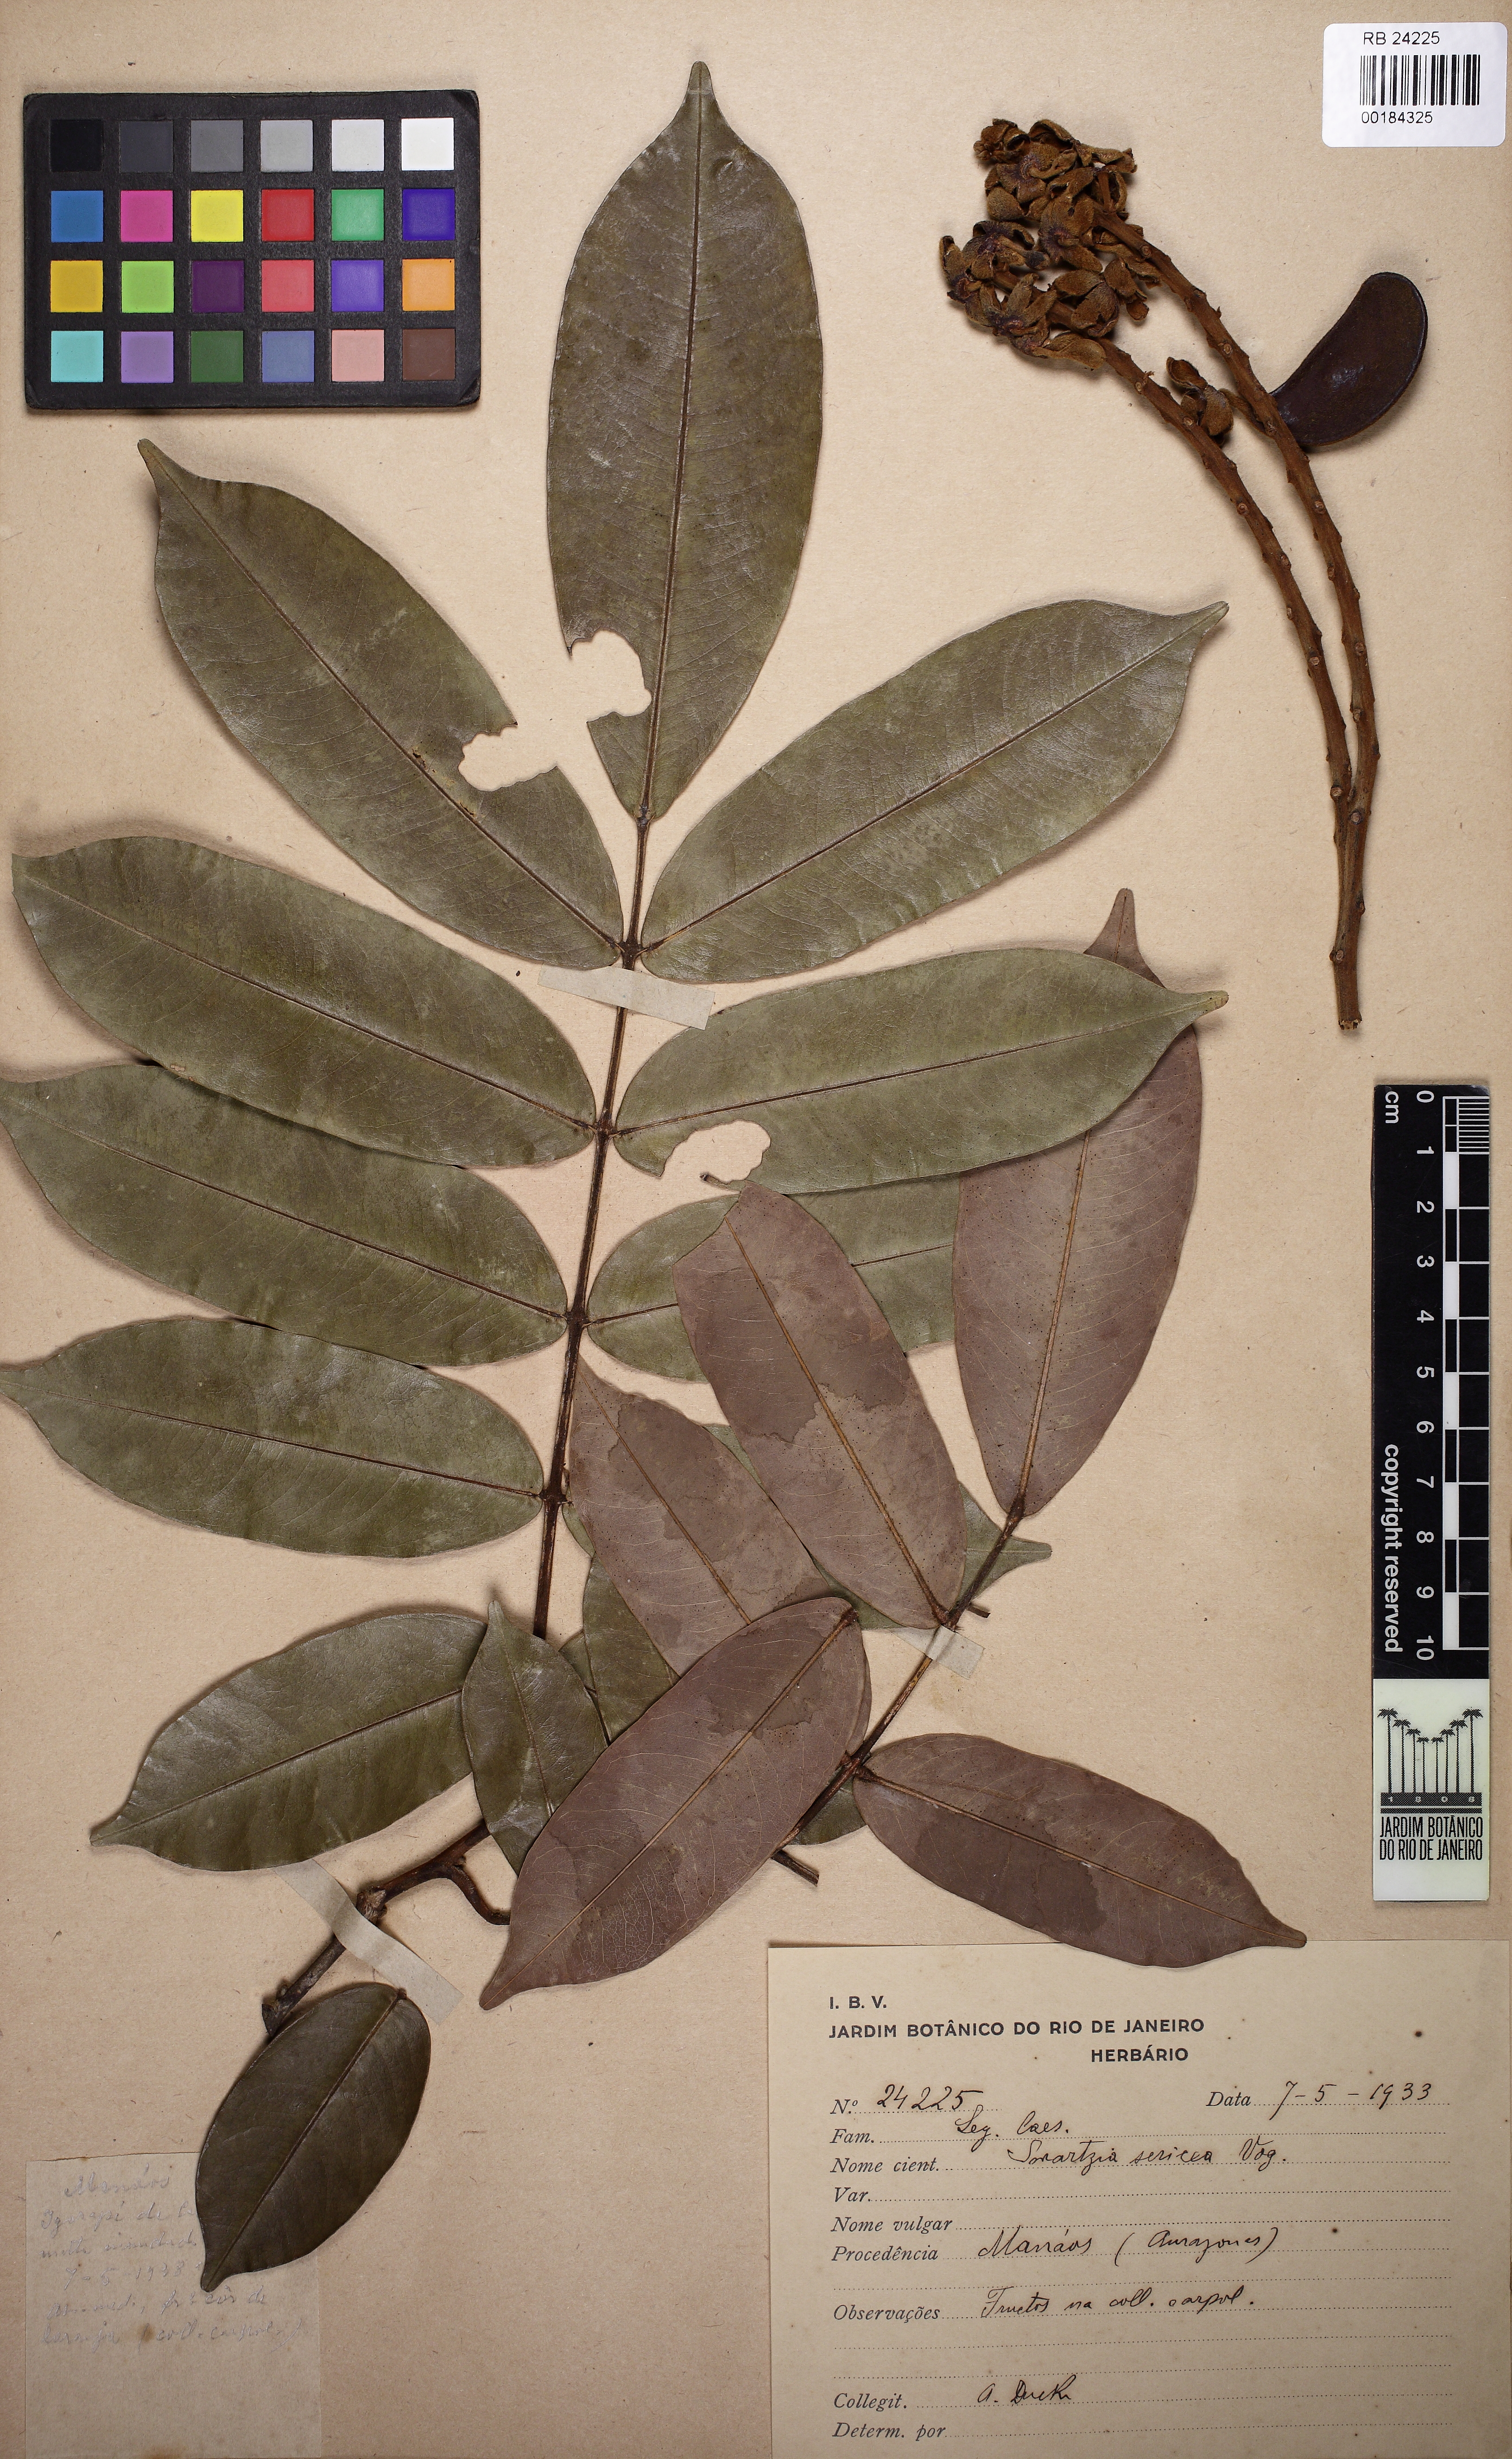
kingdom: Plantae
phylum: Tracheophyta
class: Magnoliopsida
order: Fabales
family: Fabaceae
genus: Swartzia
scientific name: Swartzia sericea
